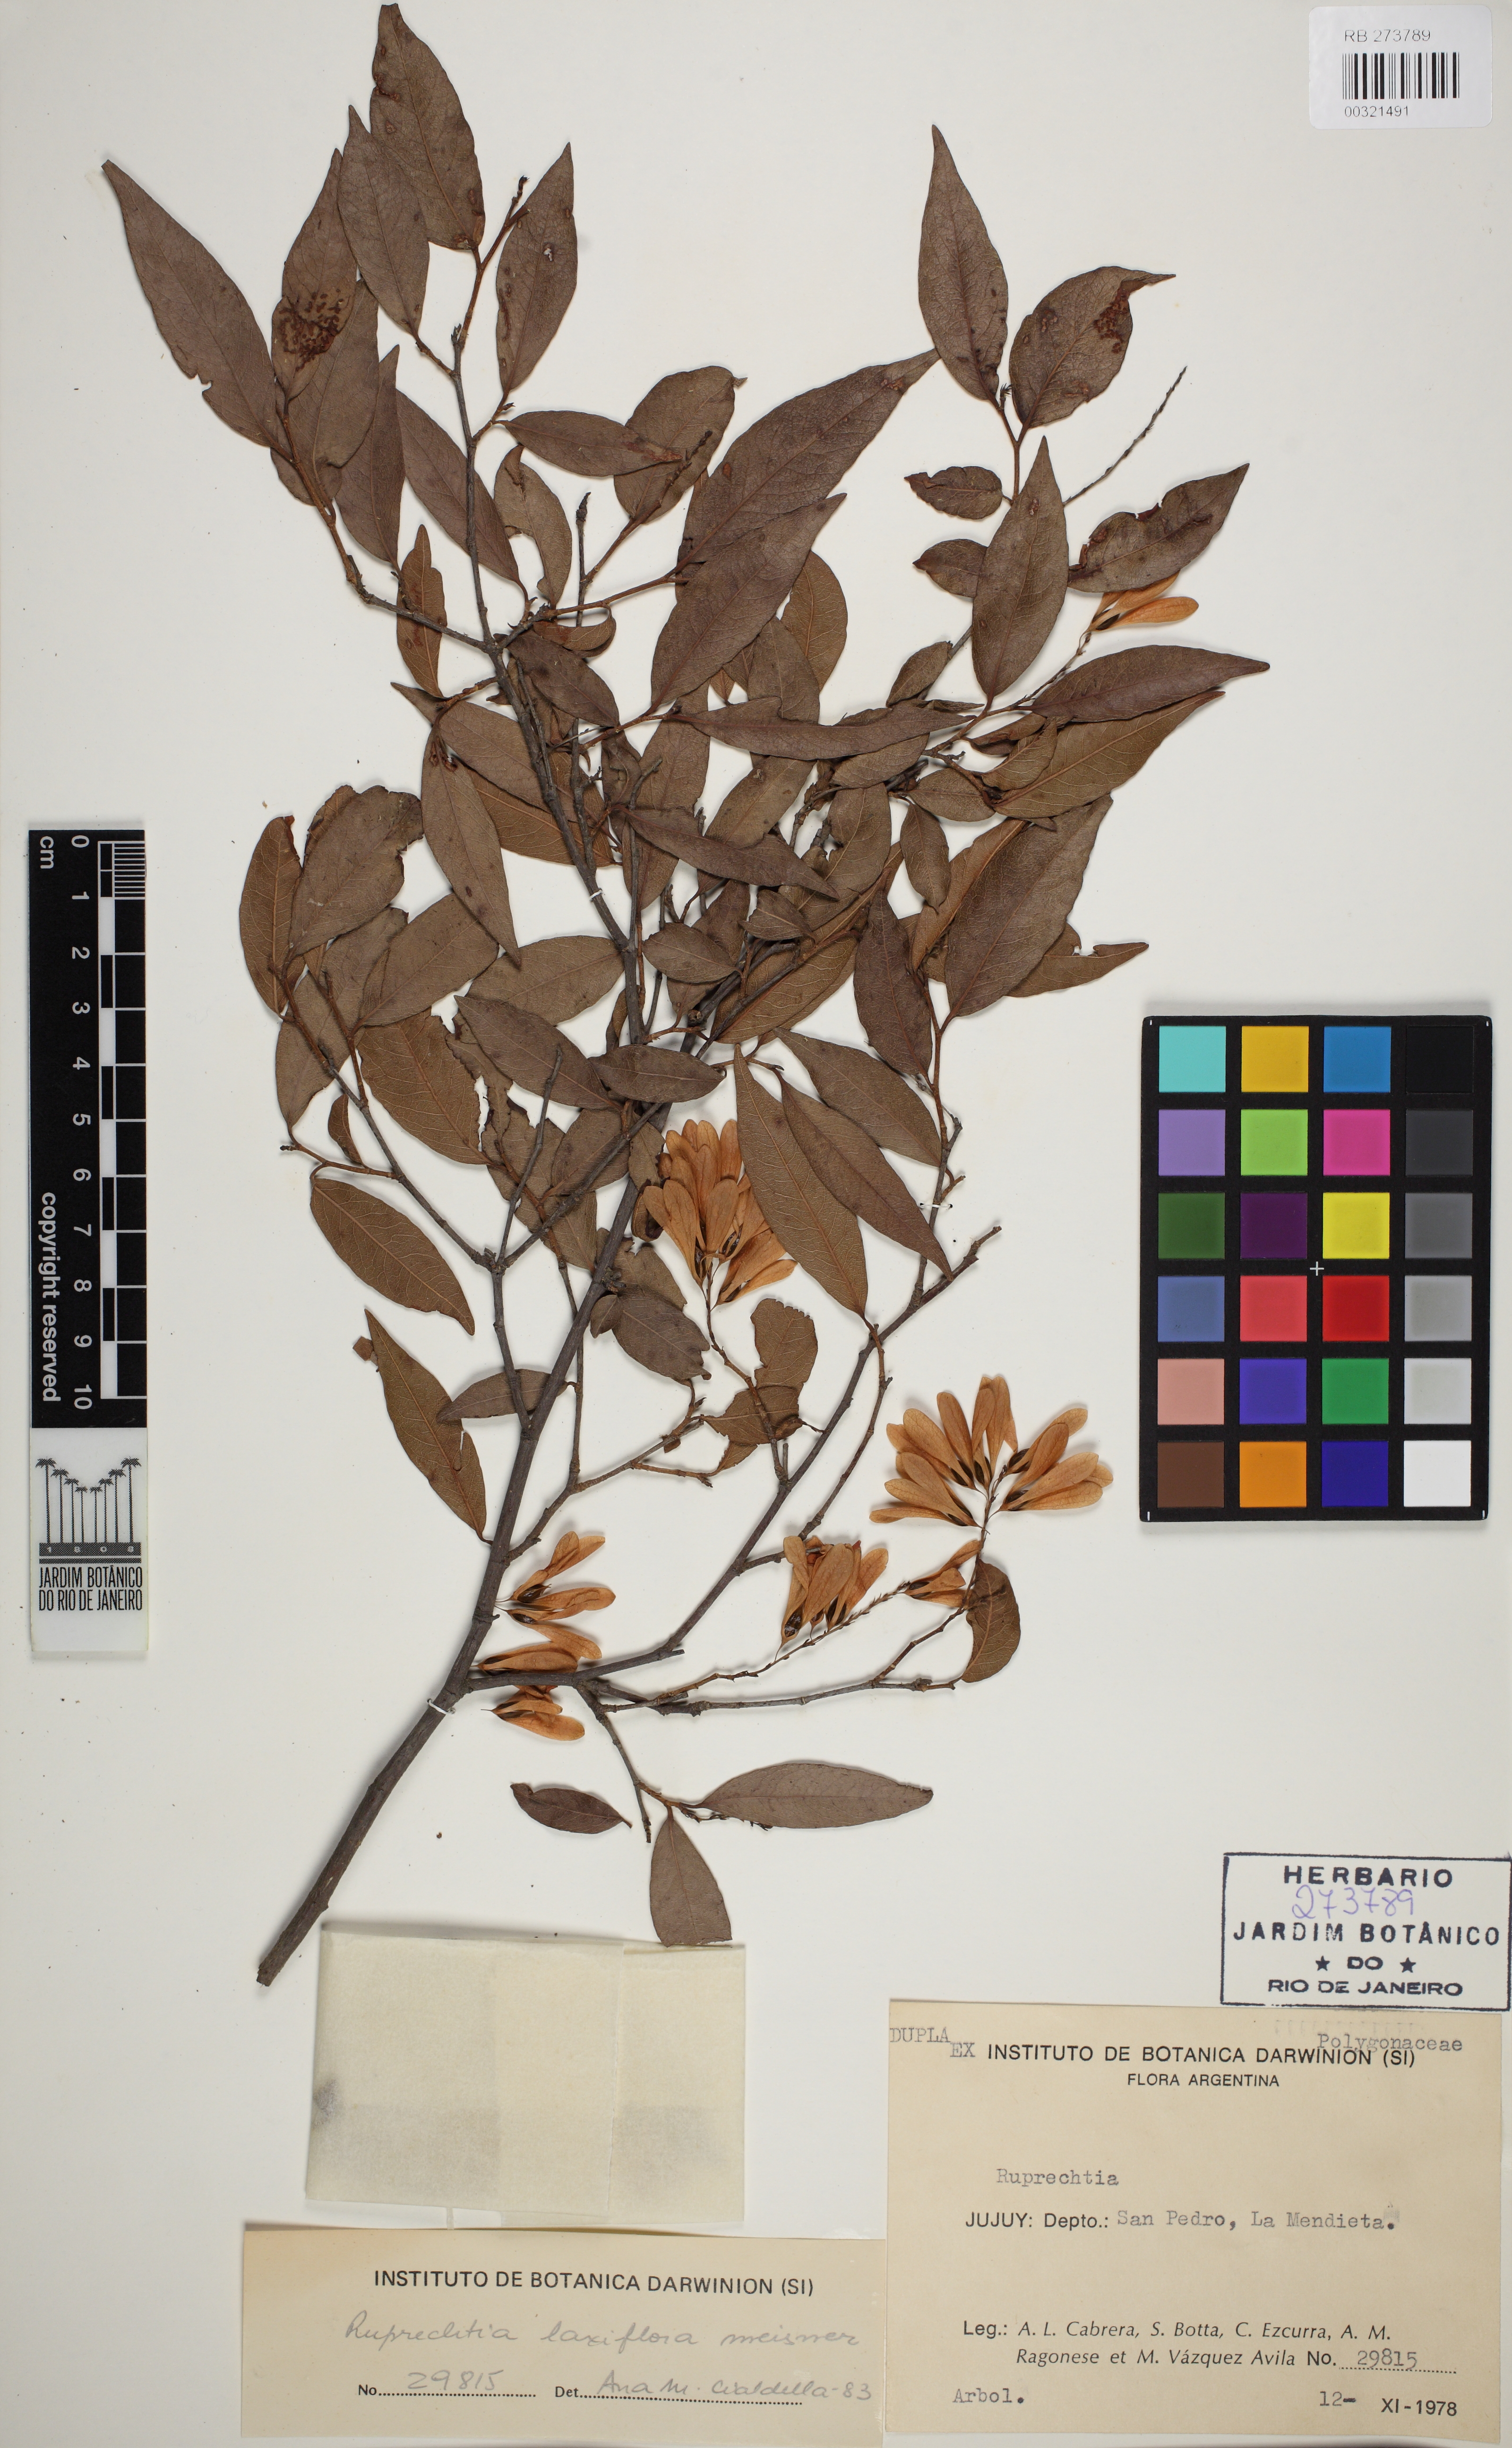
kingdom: Plantae
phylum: Tracheophyta
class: Magnoliopsida
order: Caryophyllales
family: Polygonaceae
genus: Ruprechtia
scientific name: Ruprechtia laxiflora
